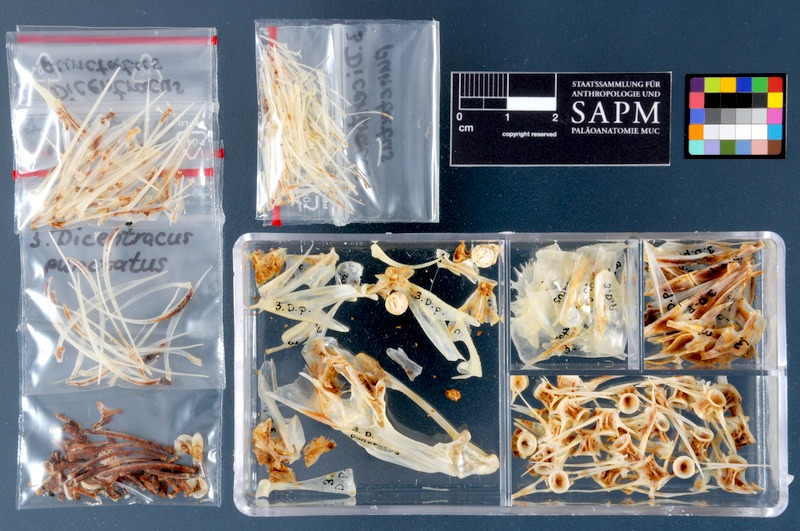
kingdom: Animalia
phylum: Chordata
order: Perciformes
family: Moronidae
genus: Dicentrarchus
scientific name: Dicentrarchus punctatus
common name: Black-spotted bass
